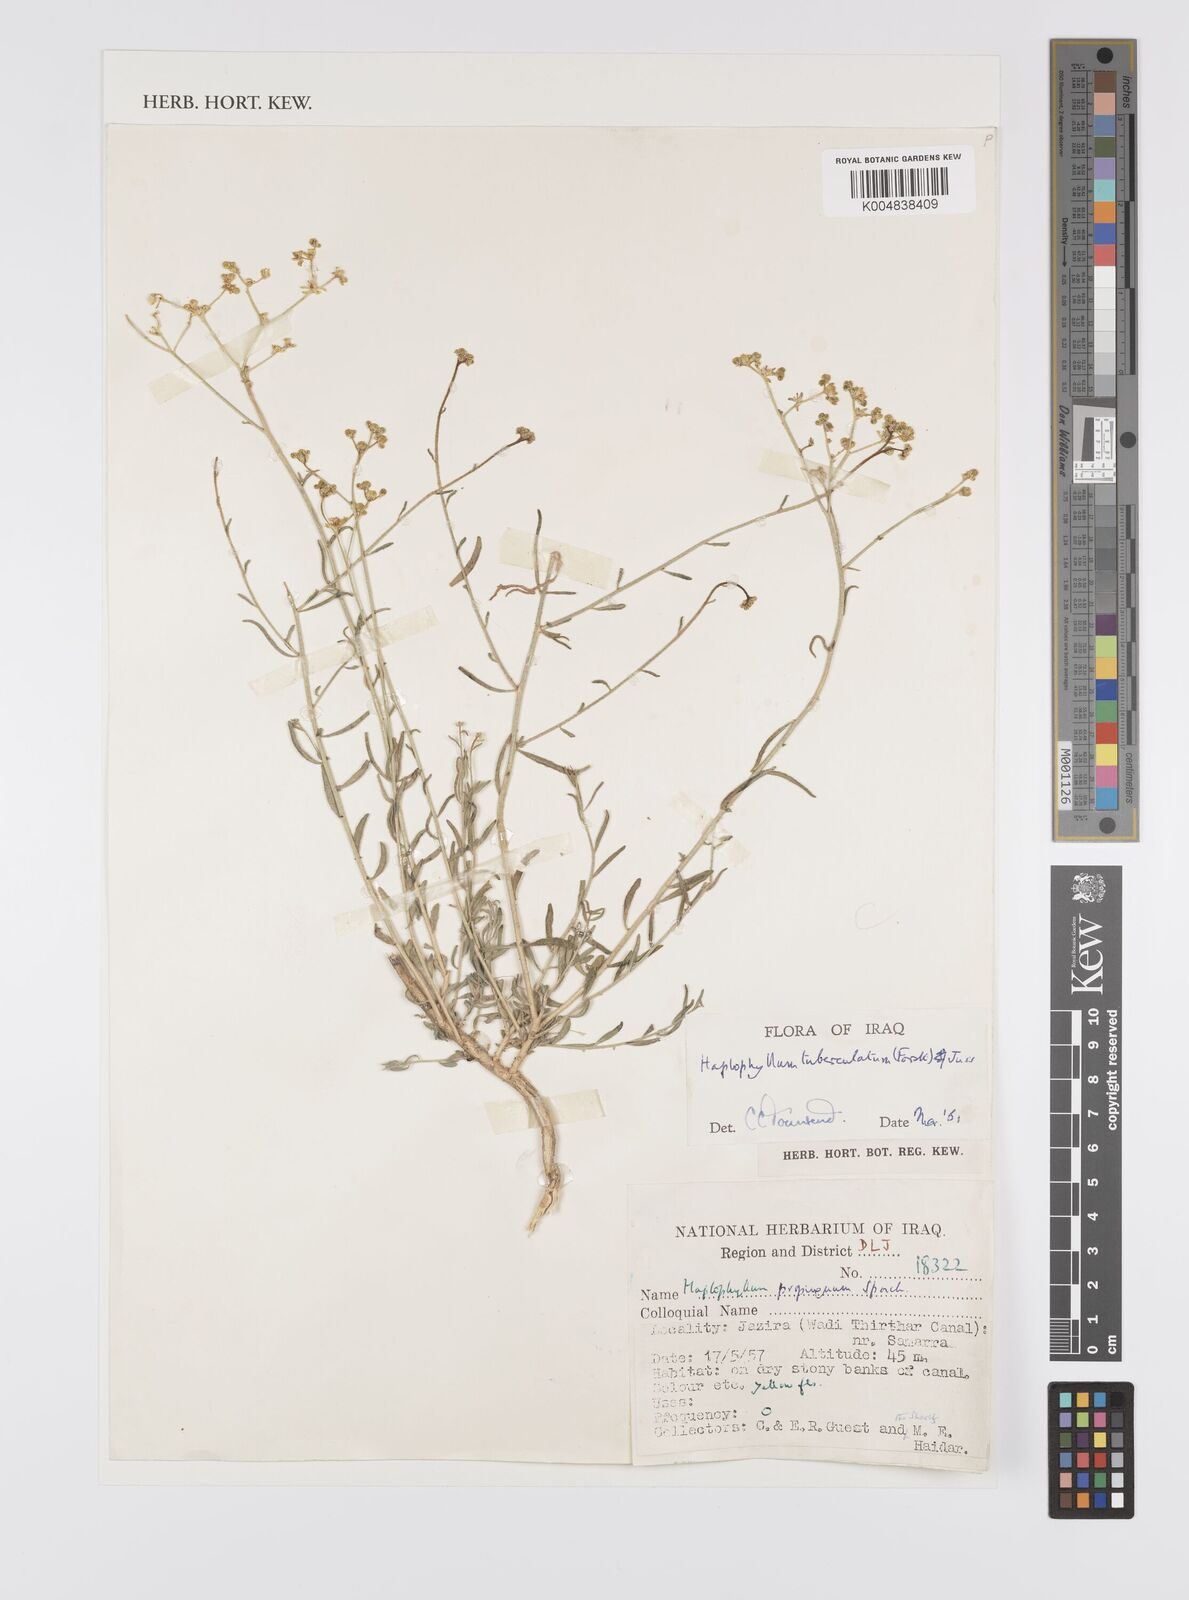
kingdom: Plantae
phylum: Tracheophyta
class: Magnoliopsida
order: Sapindales
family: Rutaceae
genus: Haplophyllum
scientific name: Haplophyllum tuberculatum
